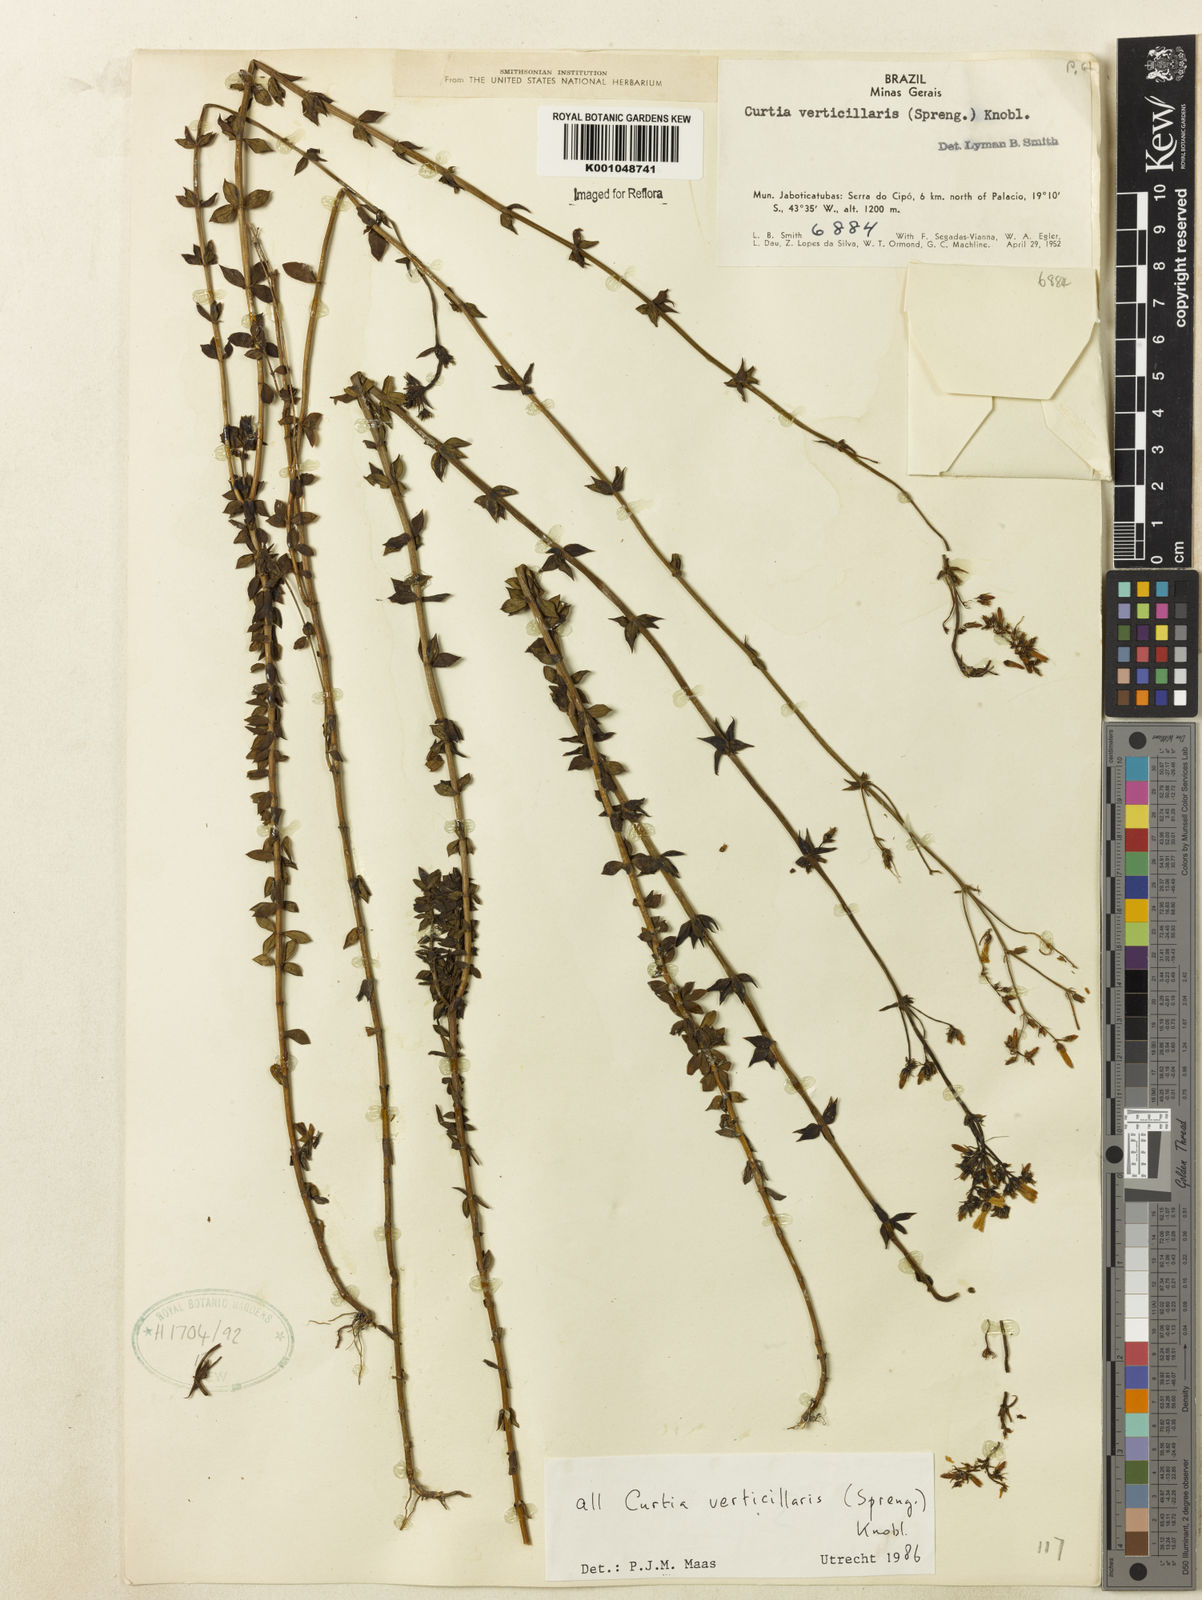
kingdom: Plantae
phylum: Tracheophyta
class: Magnoliopsida
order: Gentianales
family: Gentianaceae
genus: Curtia
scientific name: Curtia verticillaris
